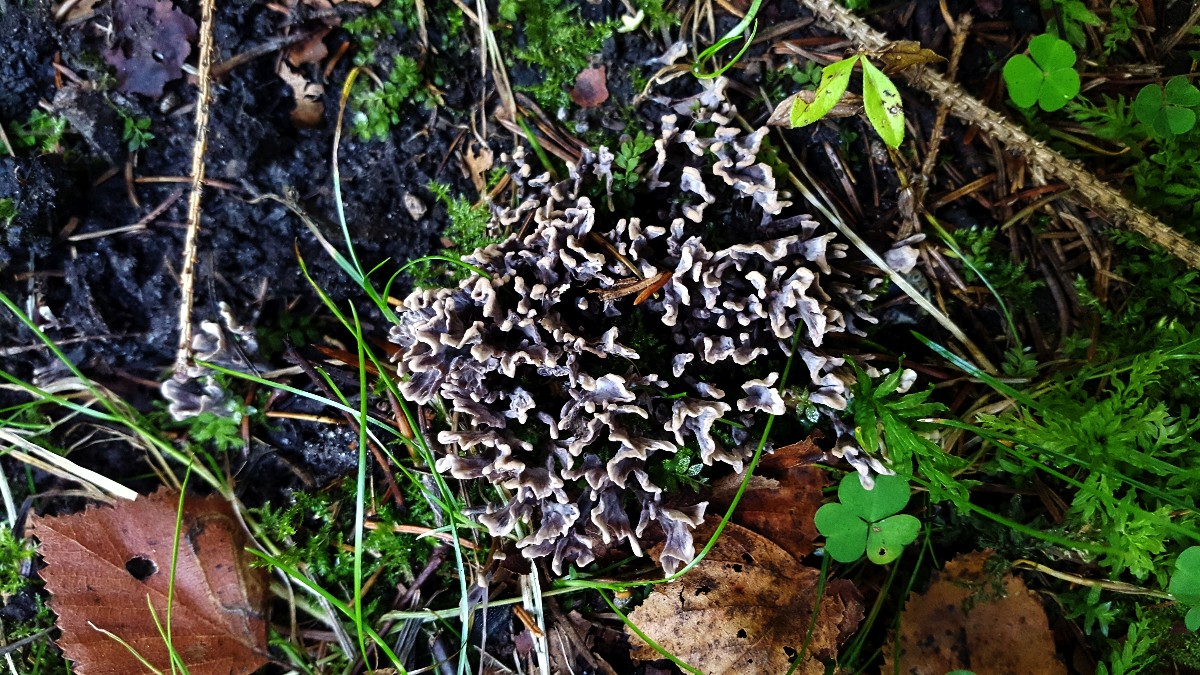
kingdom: Fungi
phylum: Basidiomycota
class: Agaricomycetes
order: Thelephorales
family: Thelephoraceae
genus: Thelephora
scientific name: Thelephora palmata
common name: grenet frynsesvamp
